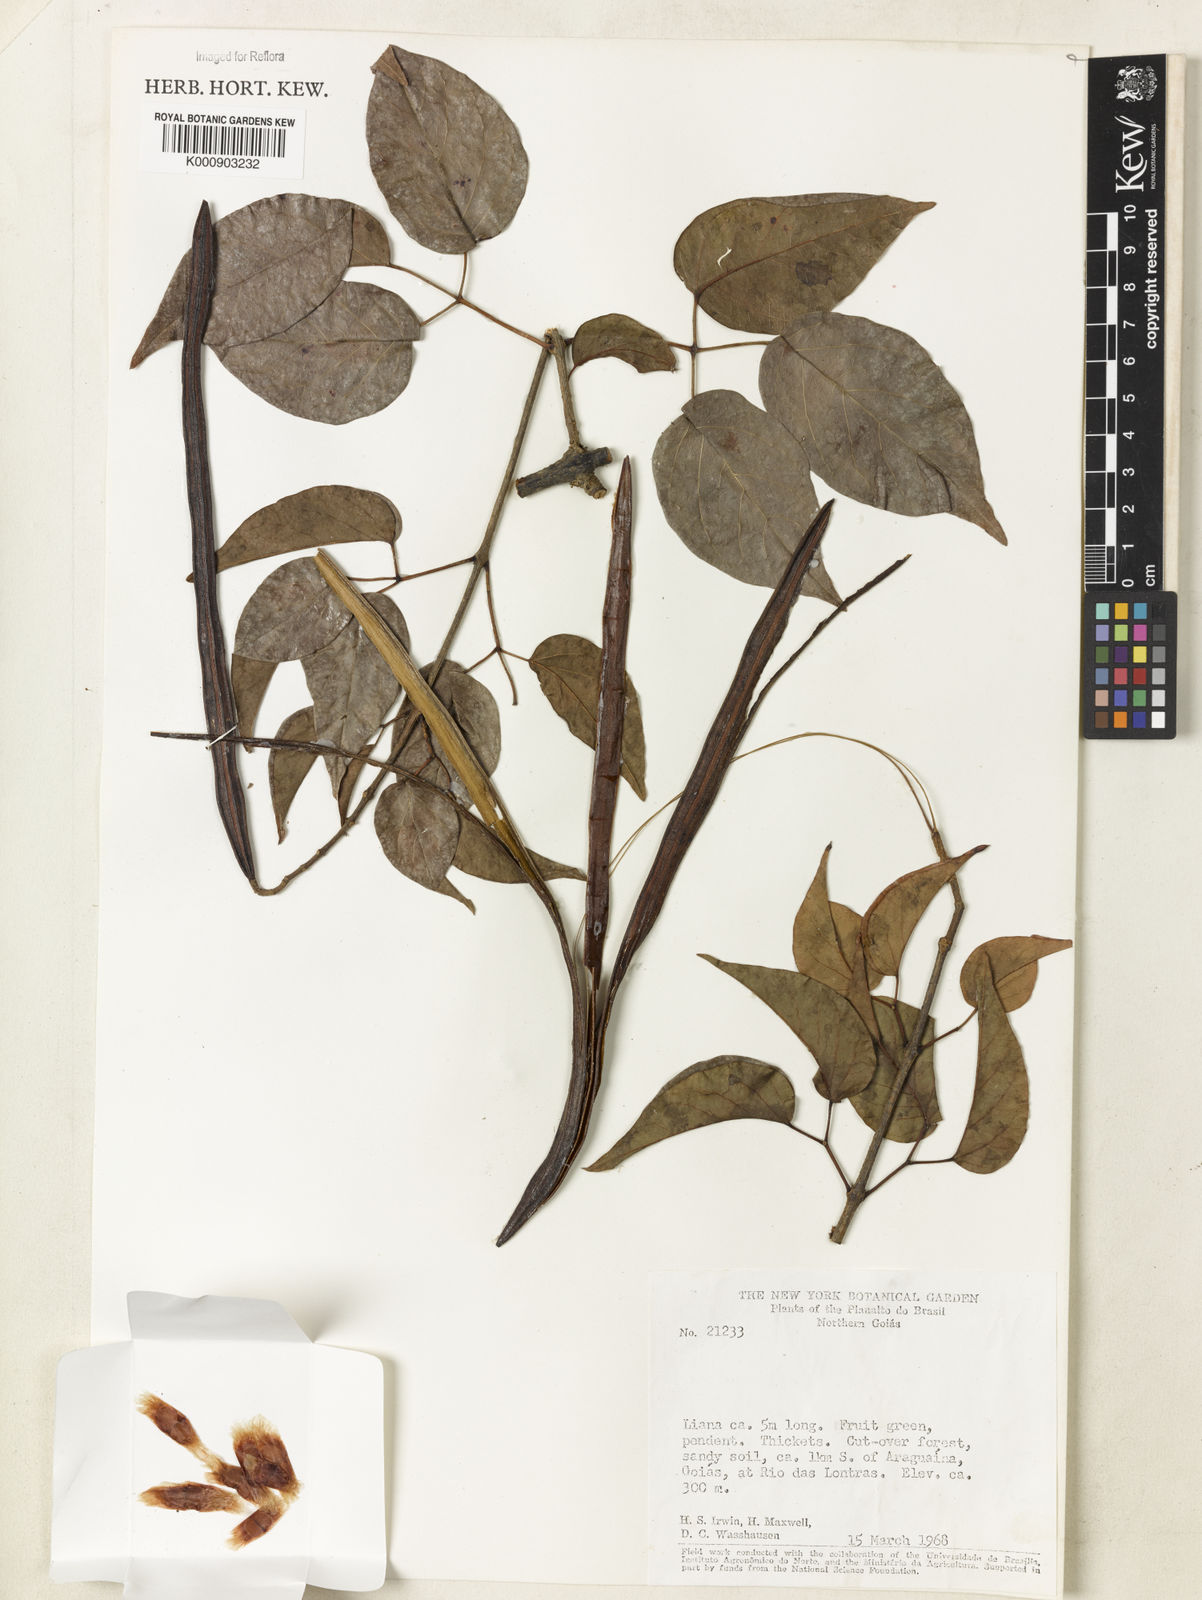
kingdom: Plantae
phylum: Tracheophyta
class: Magnoliopsida
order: Lamiales
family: Bignoniaceae
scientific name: Bignoniaceae
